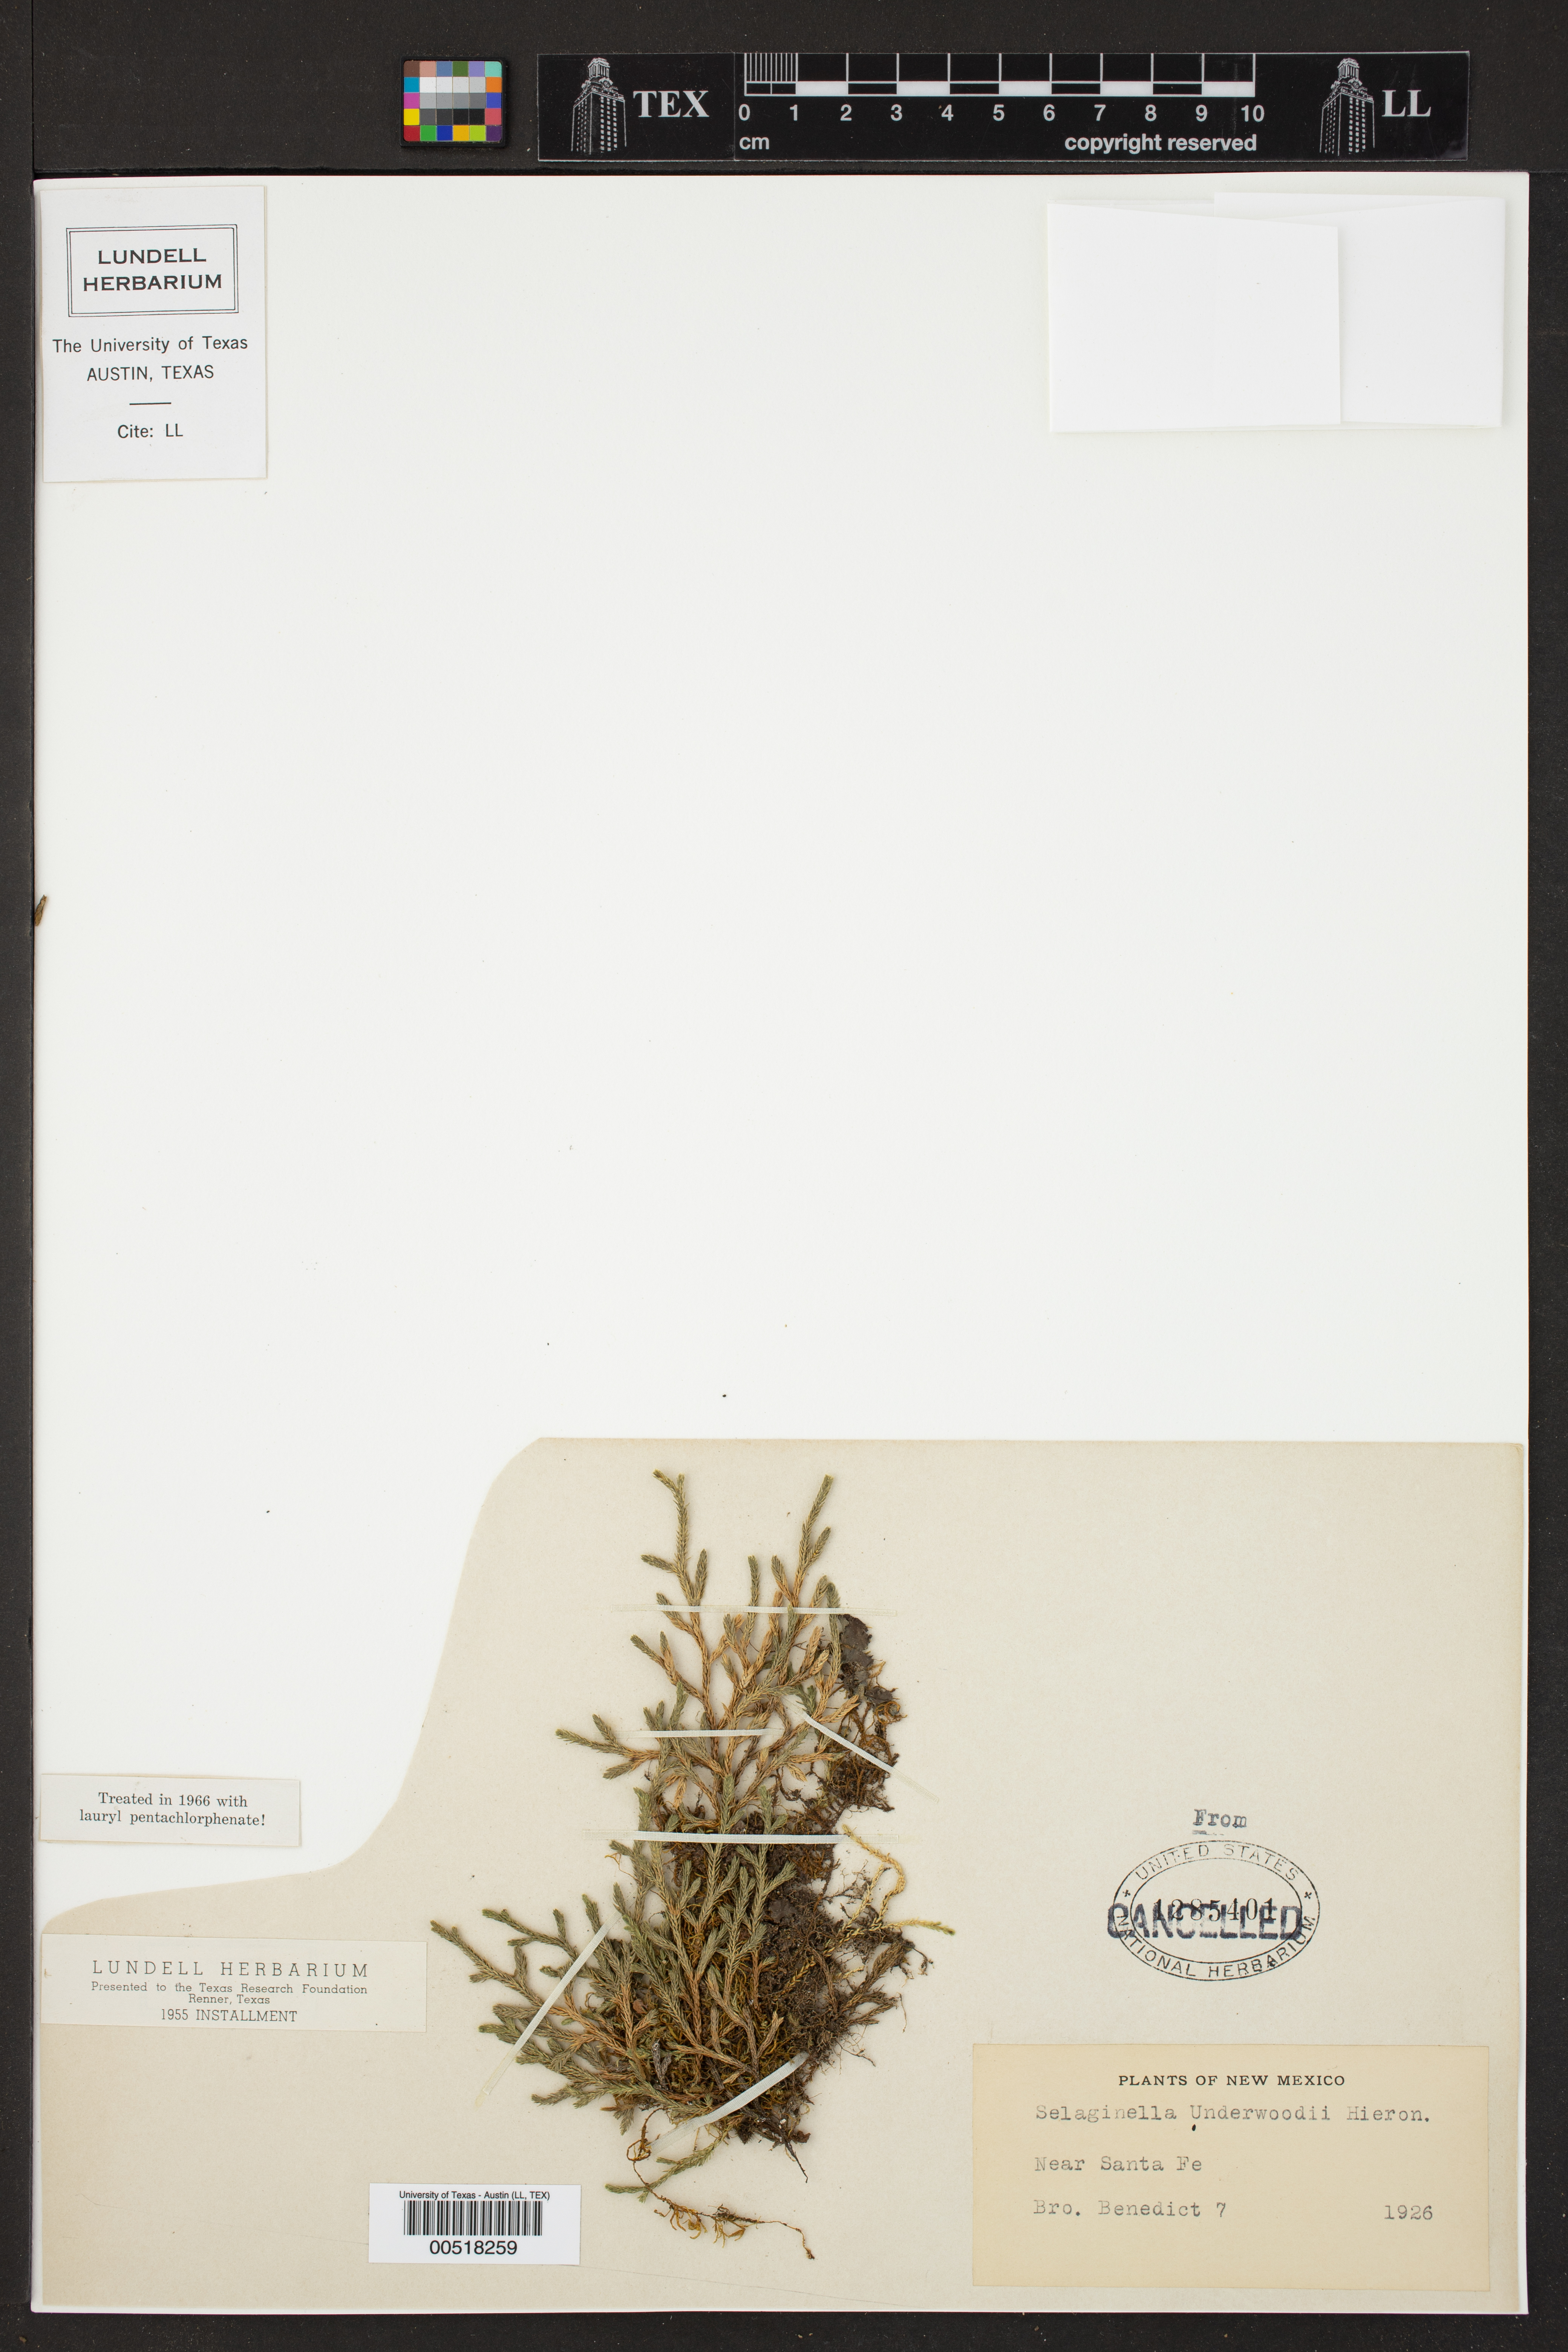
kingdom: Plantae
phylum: Tracheophyta
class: Lycopodiopsida
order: Selaginellales
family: Selaginellaceae
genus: Selaginella
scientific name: Selaginella underwoodii
